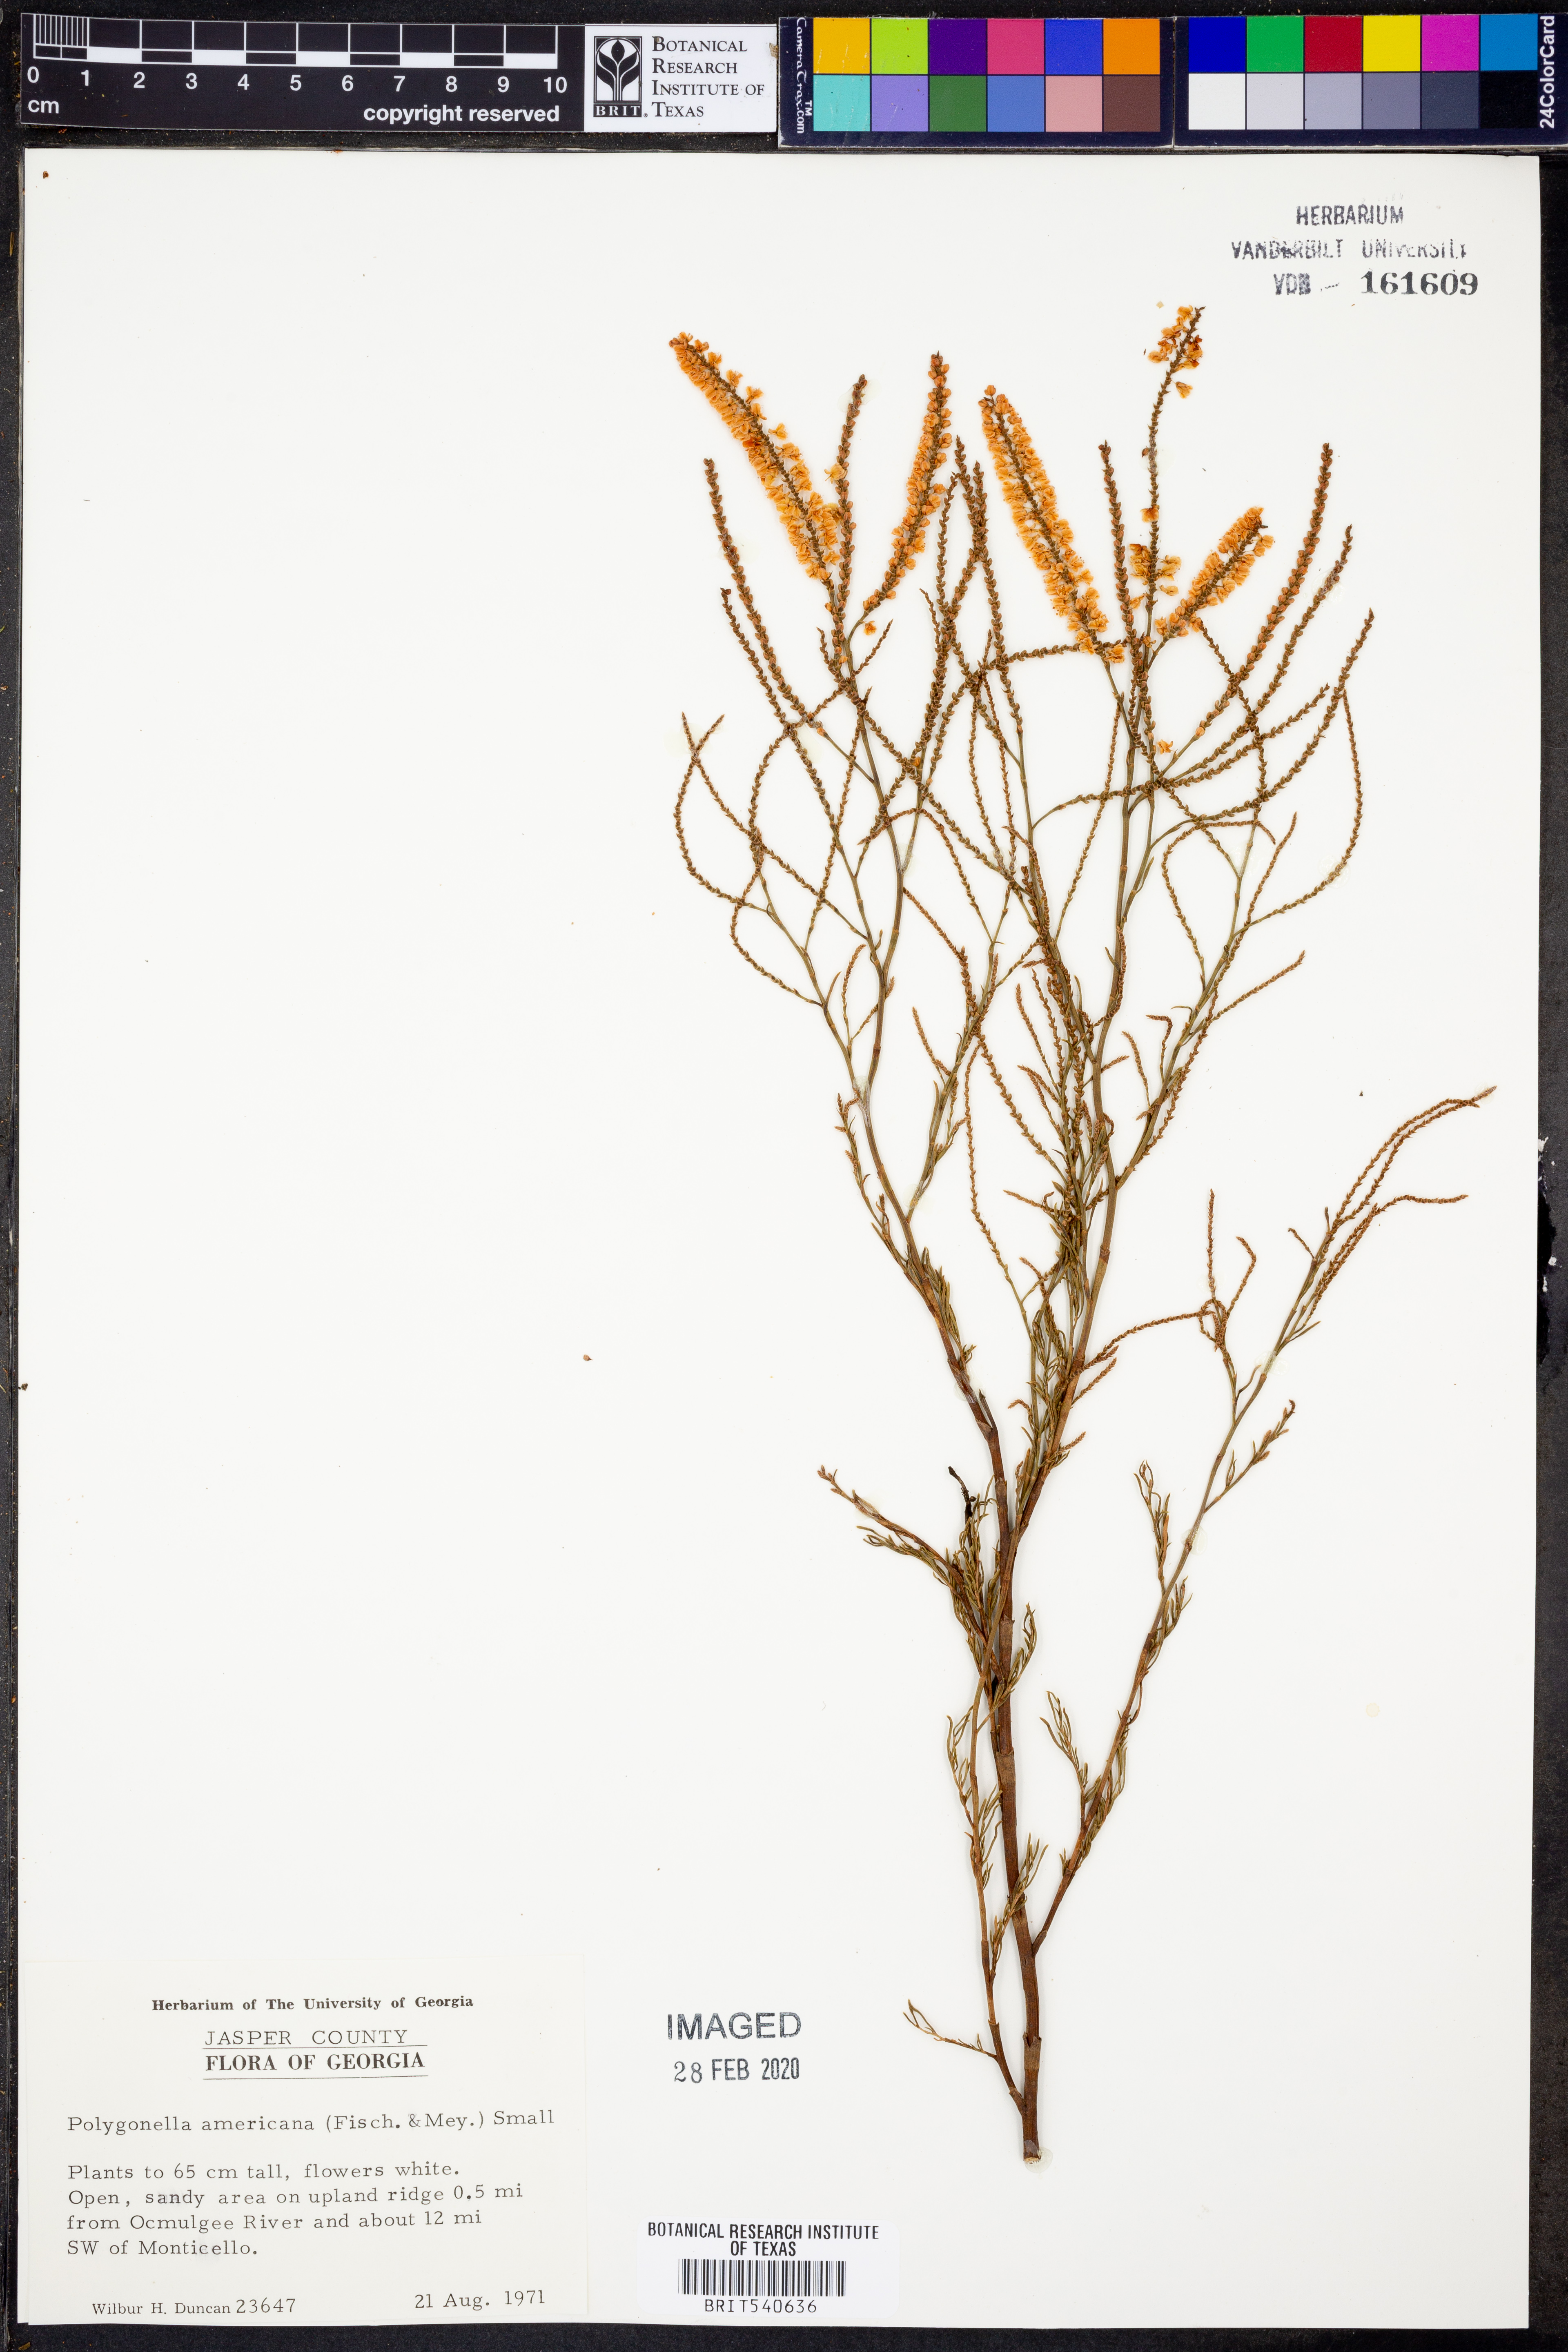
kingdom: Plantae
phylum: Tracheophyta
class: Magnoliopsida
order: Caryophyllales
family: Polygonaceae
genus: Polygonella
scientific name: Polygonella americana
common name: Southern jointweed
